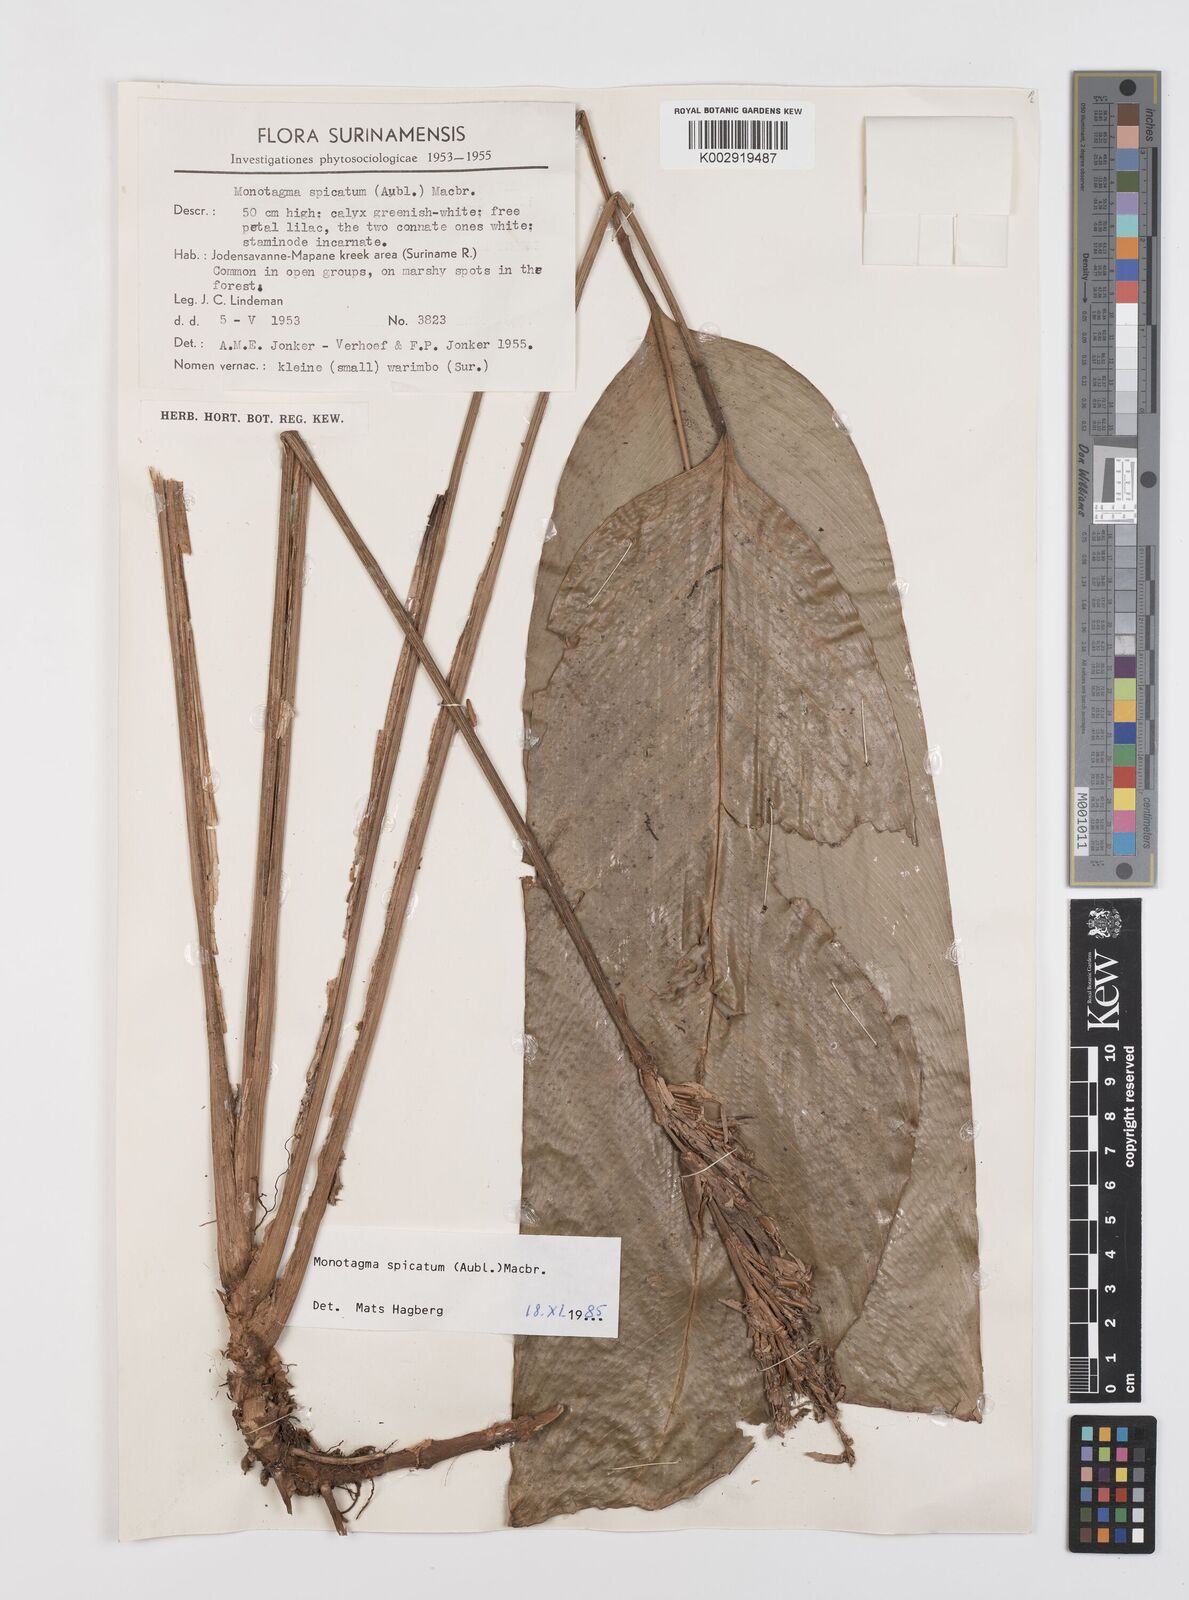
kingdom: Plantae
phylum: Tracheophyta
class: Liliopsida
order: Zingiberales
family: Marantaceae
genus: Monotagma
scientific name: Monotagma spicatum
